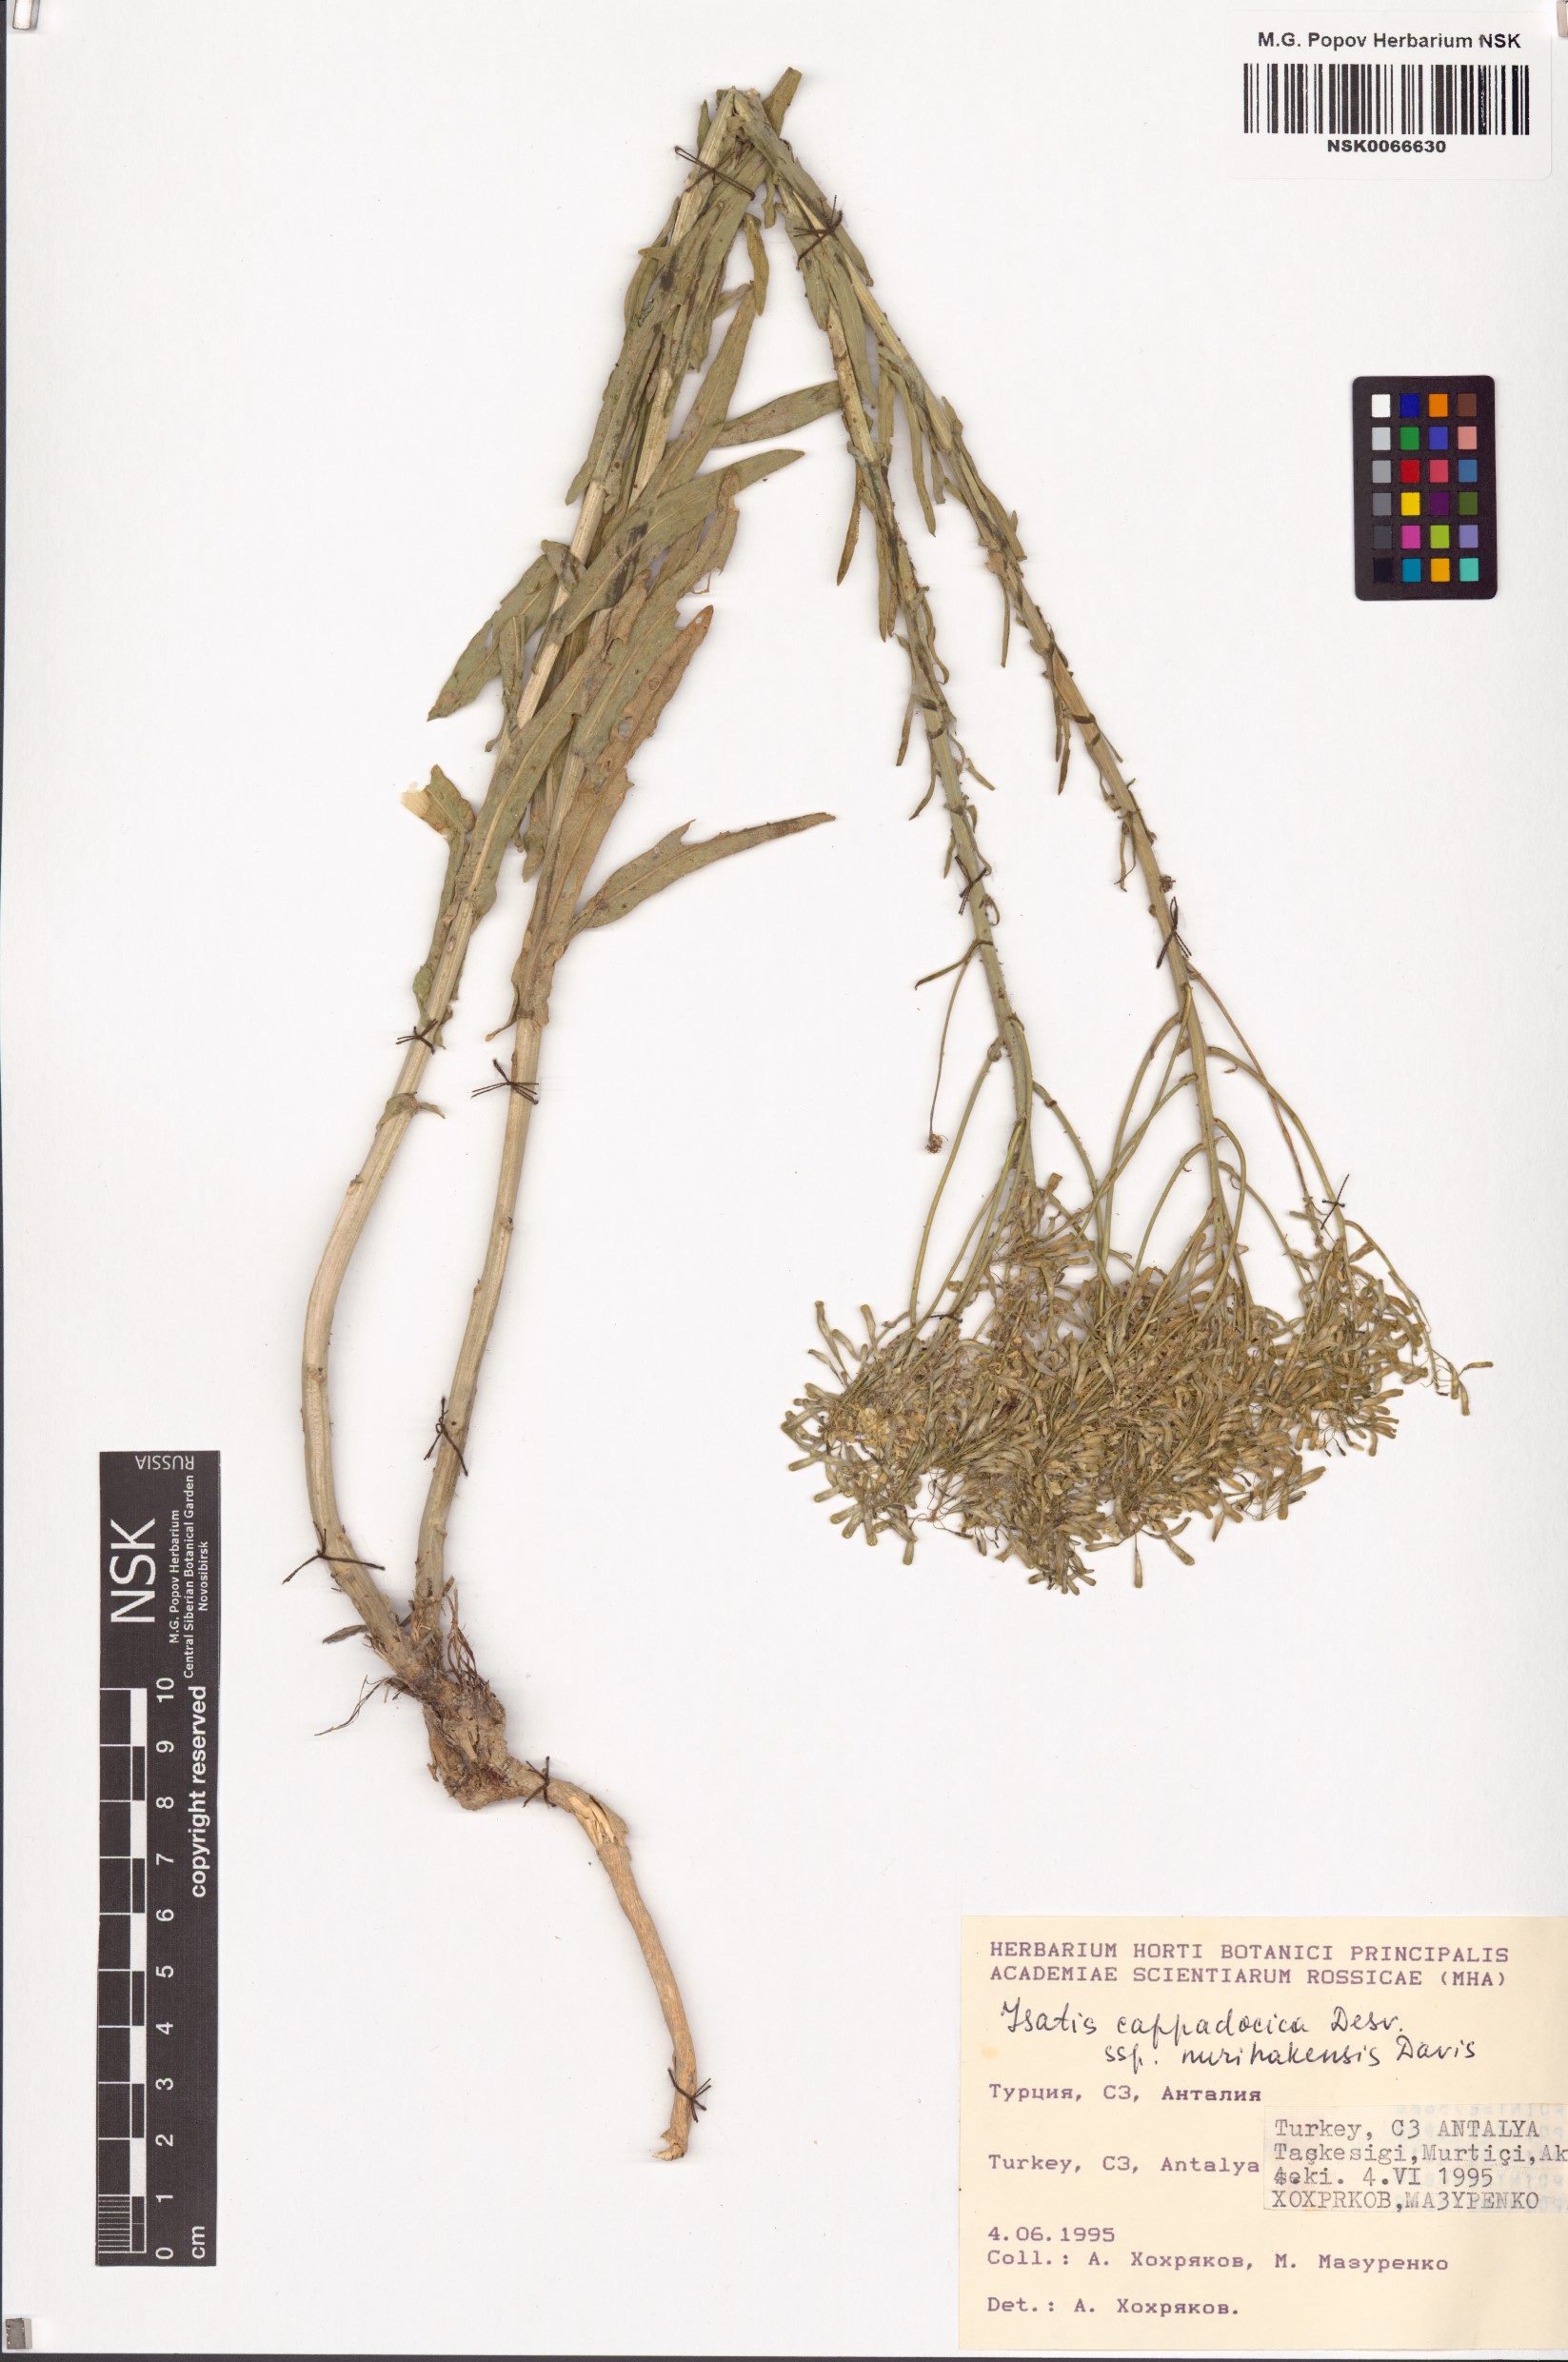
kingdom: Plantae
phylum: Tracheophyta
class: Magnoliopsida
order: Brassicales
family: Brassicaceae
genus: Isatis
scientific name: Isatis cappadocica
